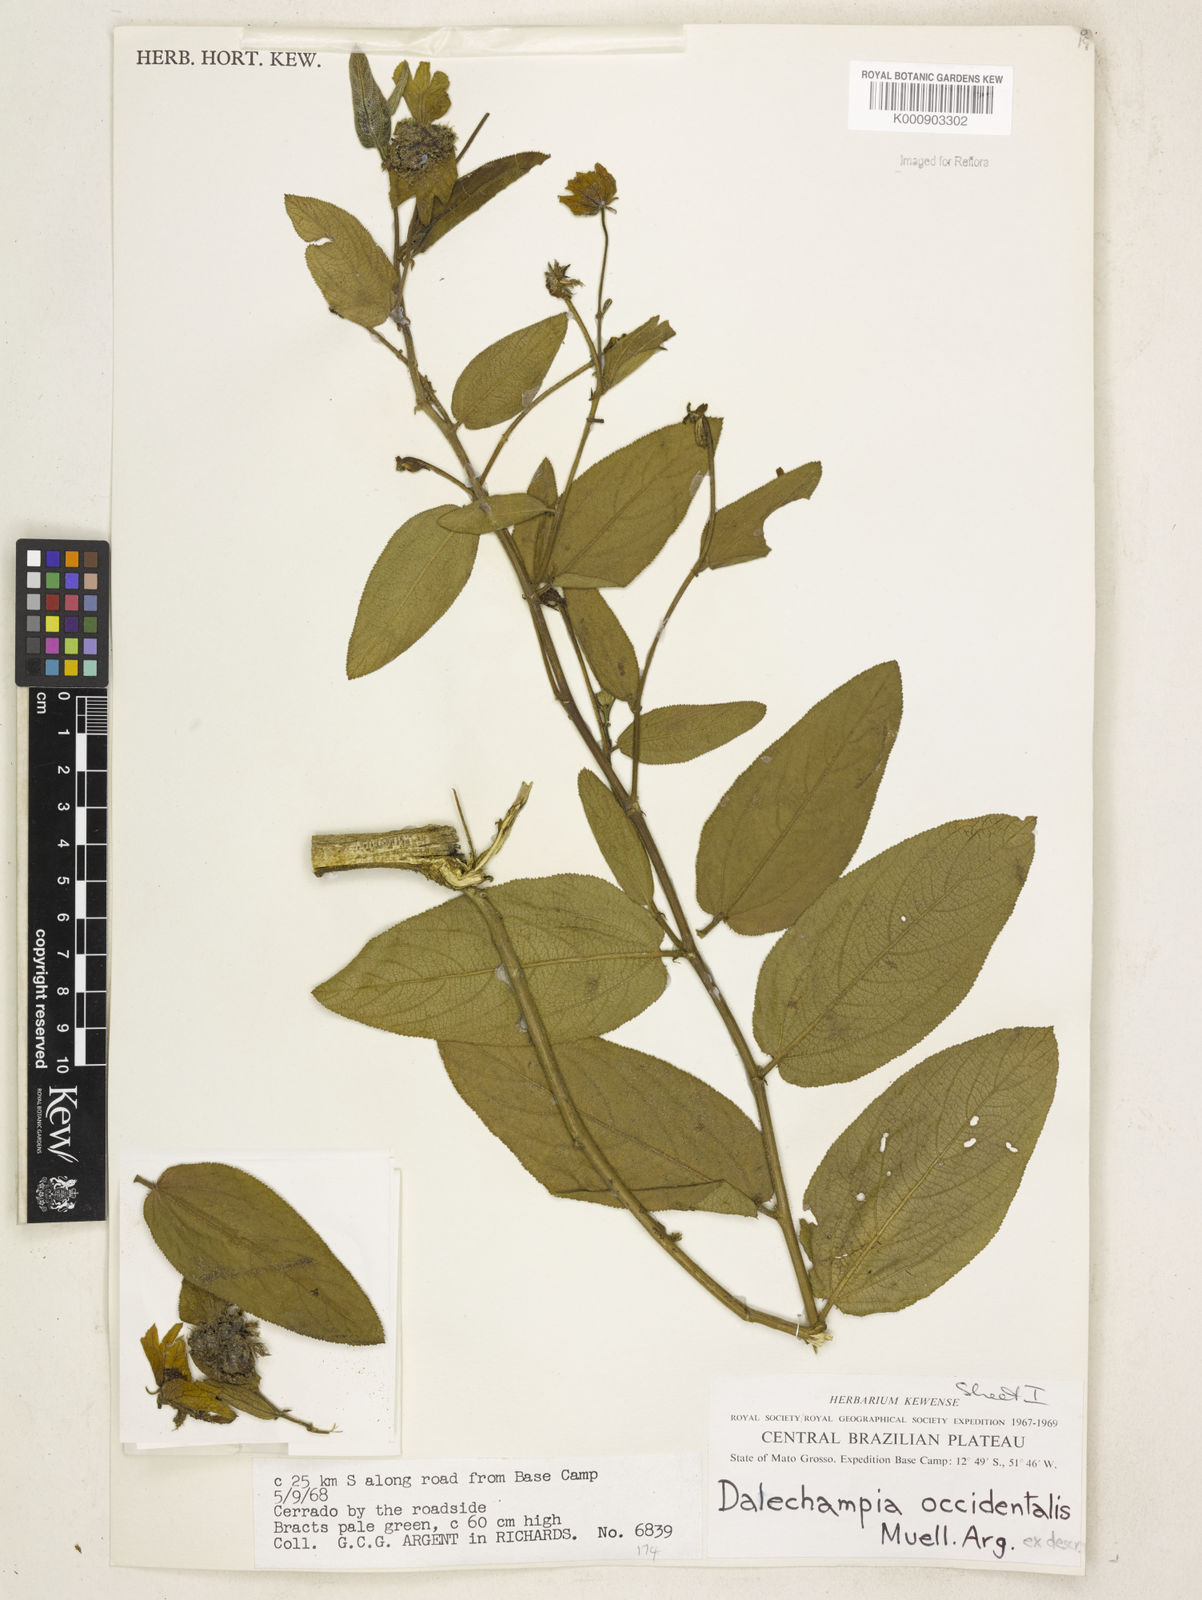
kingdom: Plantae
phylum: Tracheophyta
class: Magnoliopsida
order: Malpighiales
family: Euphorbiaceae
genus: Dalechampia
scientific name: Dalechampia
